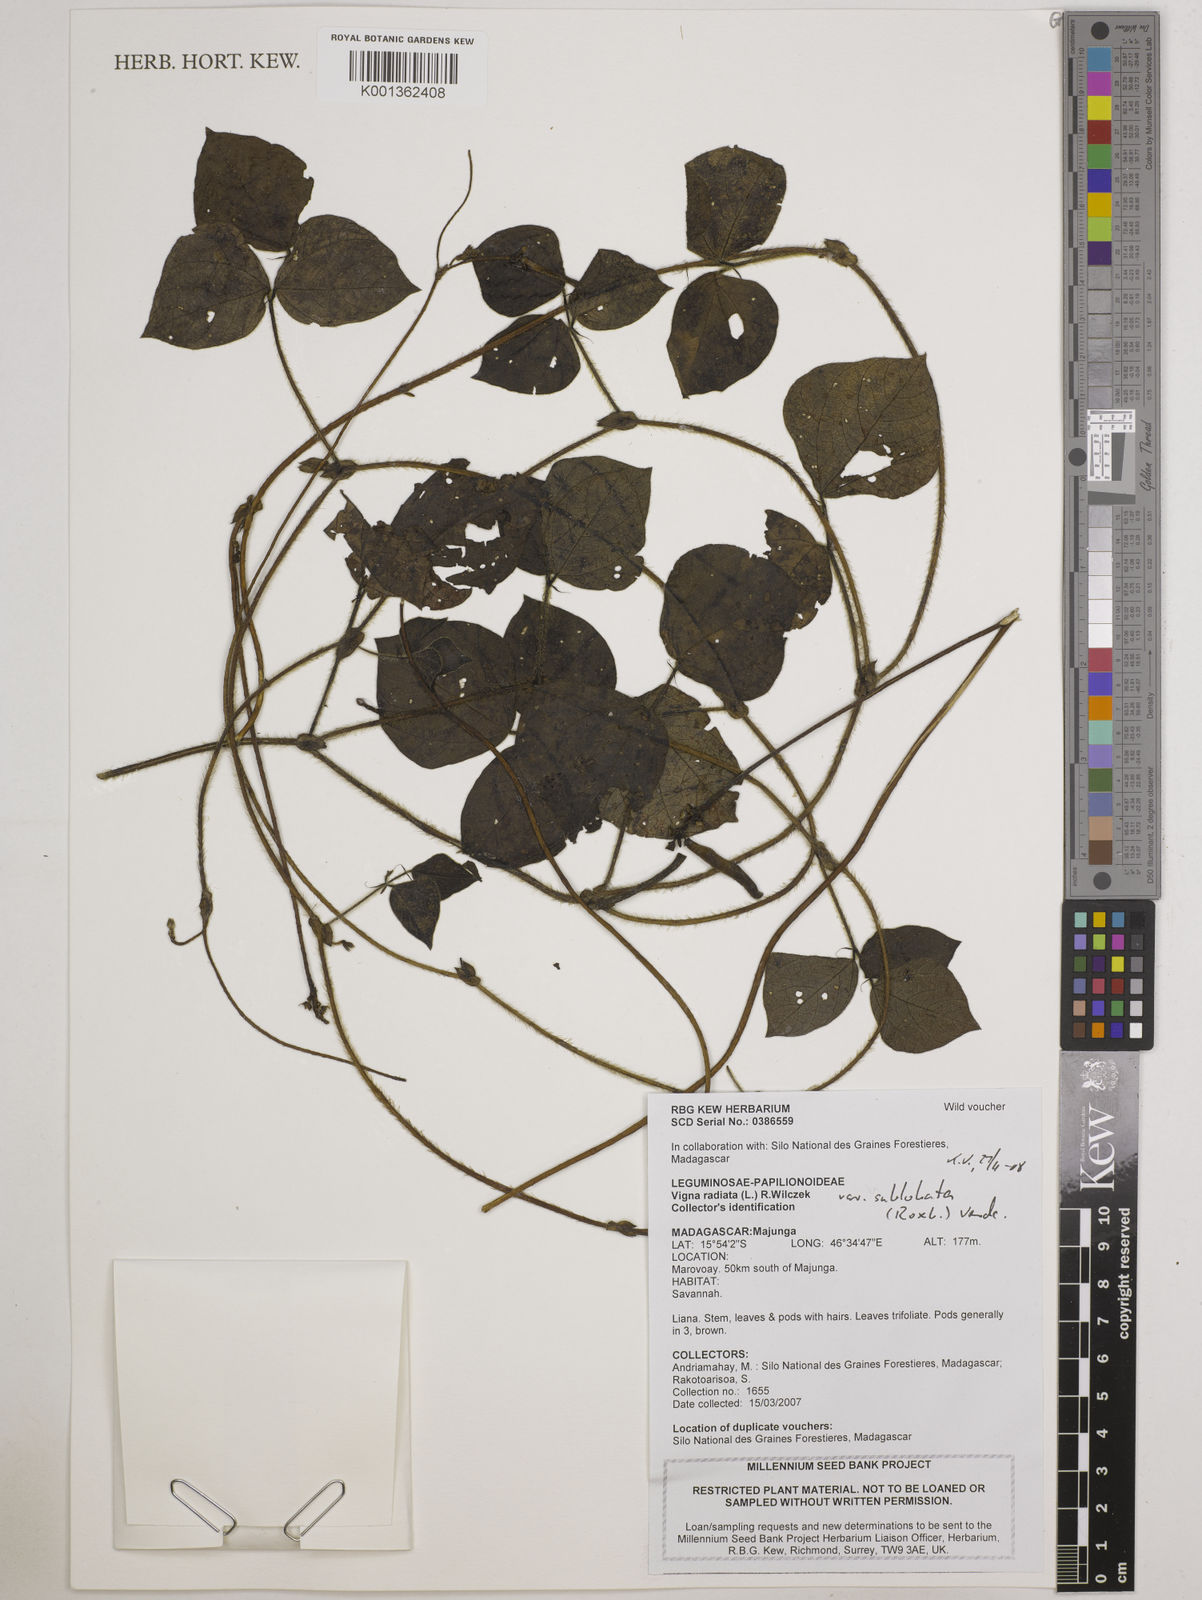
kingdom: Plantae
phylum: Tracheophyta
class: Magnoliopsida
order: Fabales
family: Fabaceae
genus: Vigna
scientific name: Vigna radiata
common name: Mung-bean
